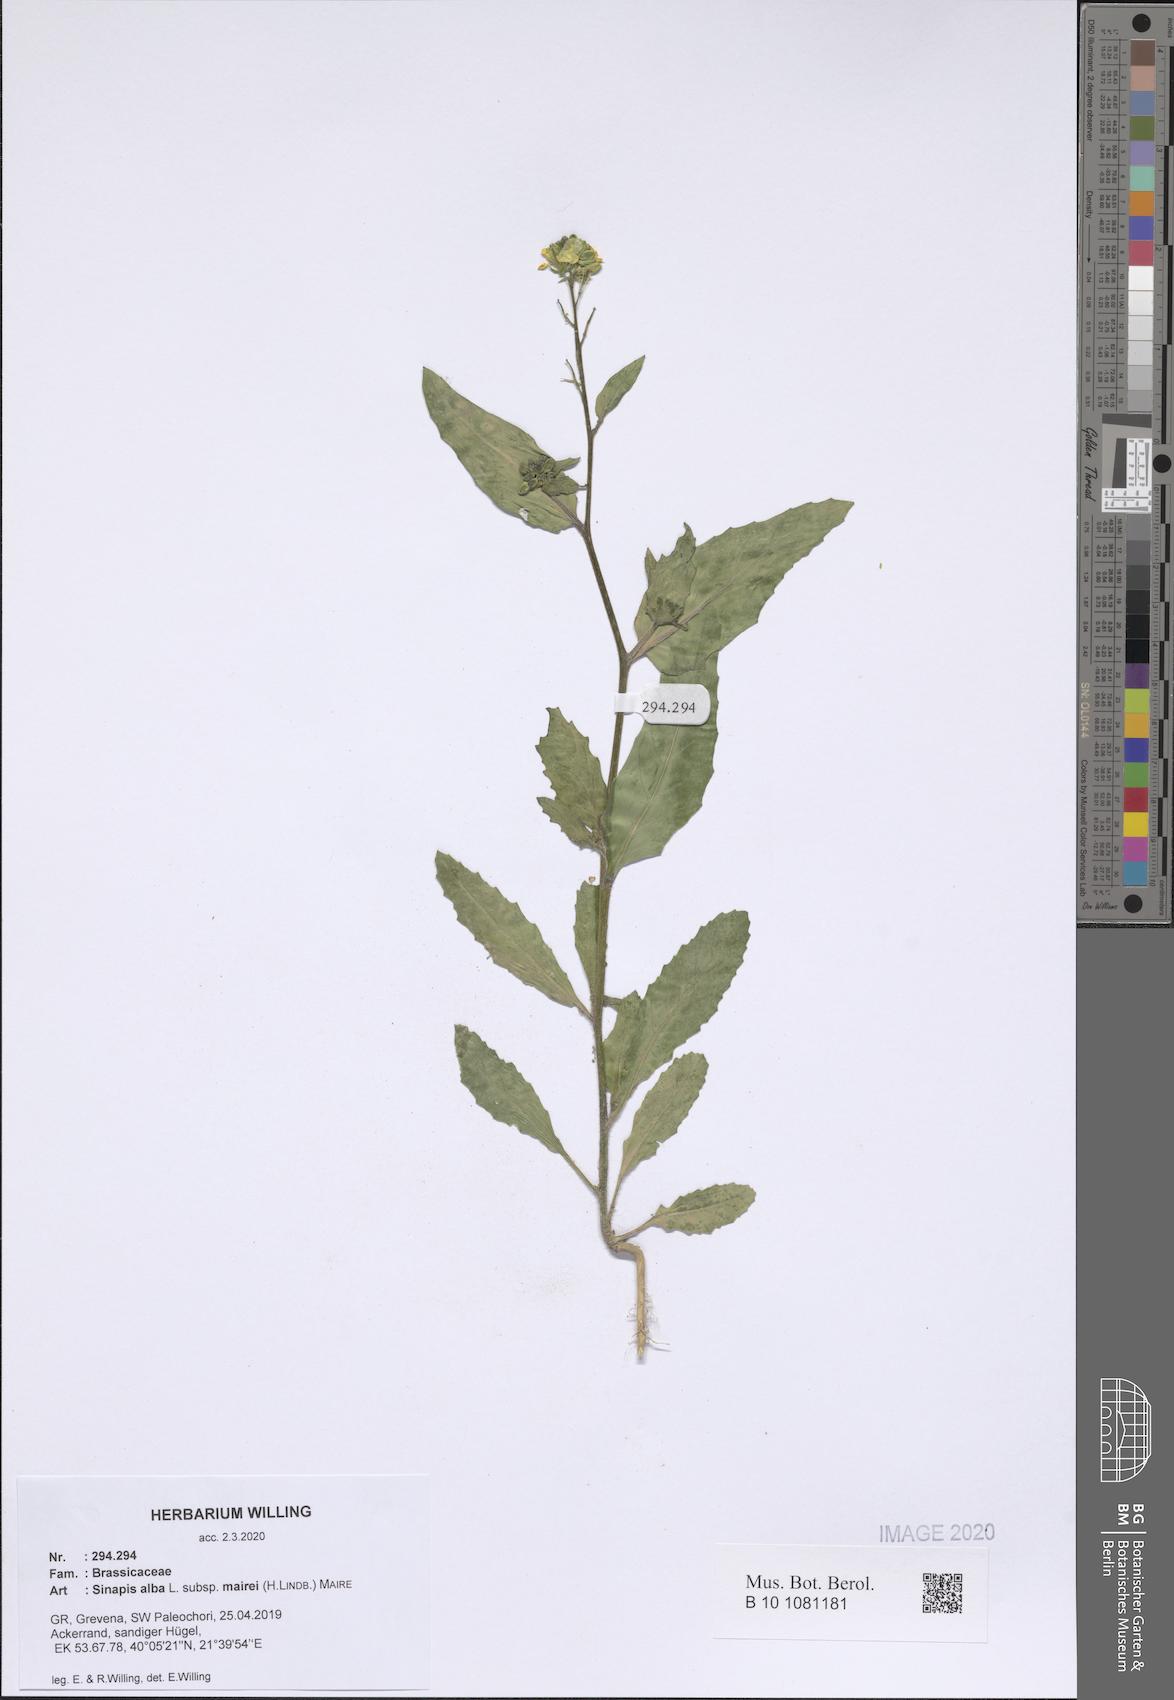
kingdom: Plantae
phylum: Tracheophyta
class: Magnoliopsida
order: Brassicales
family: Brassicaceae
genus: Sinapis
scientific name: Sinapis alba
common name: White mustard
